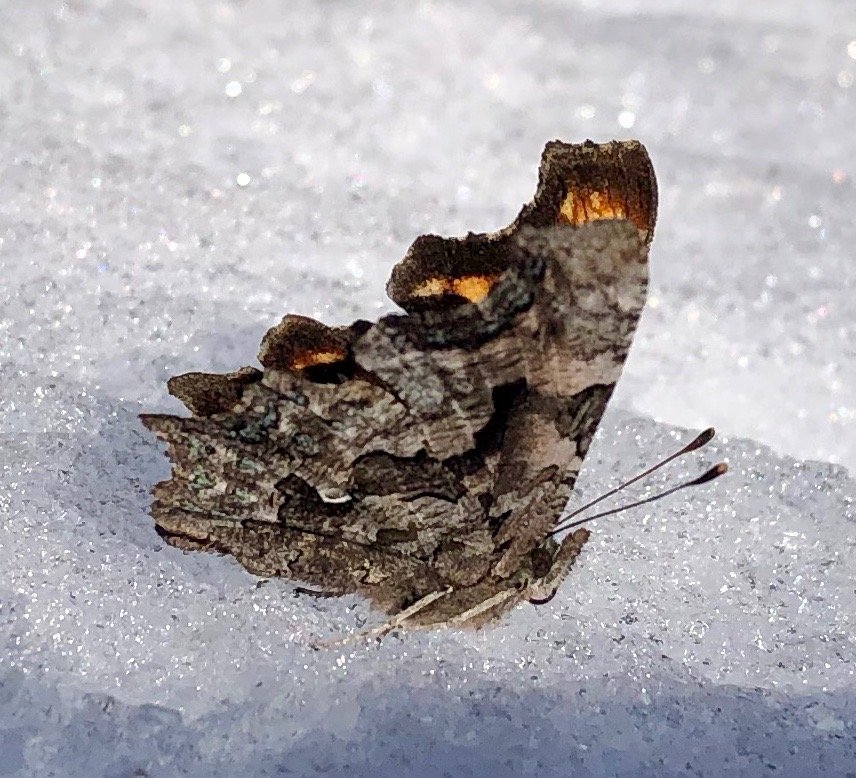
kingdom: Animalia
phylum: Arthropoda
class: Insecta
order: Lepidoptera
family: Nymphalidae
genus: Polygonia
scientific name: Polygonia faunus
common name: Green Comma
